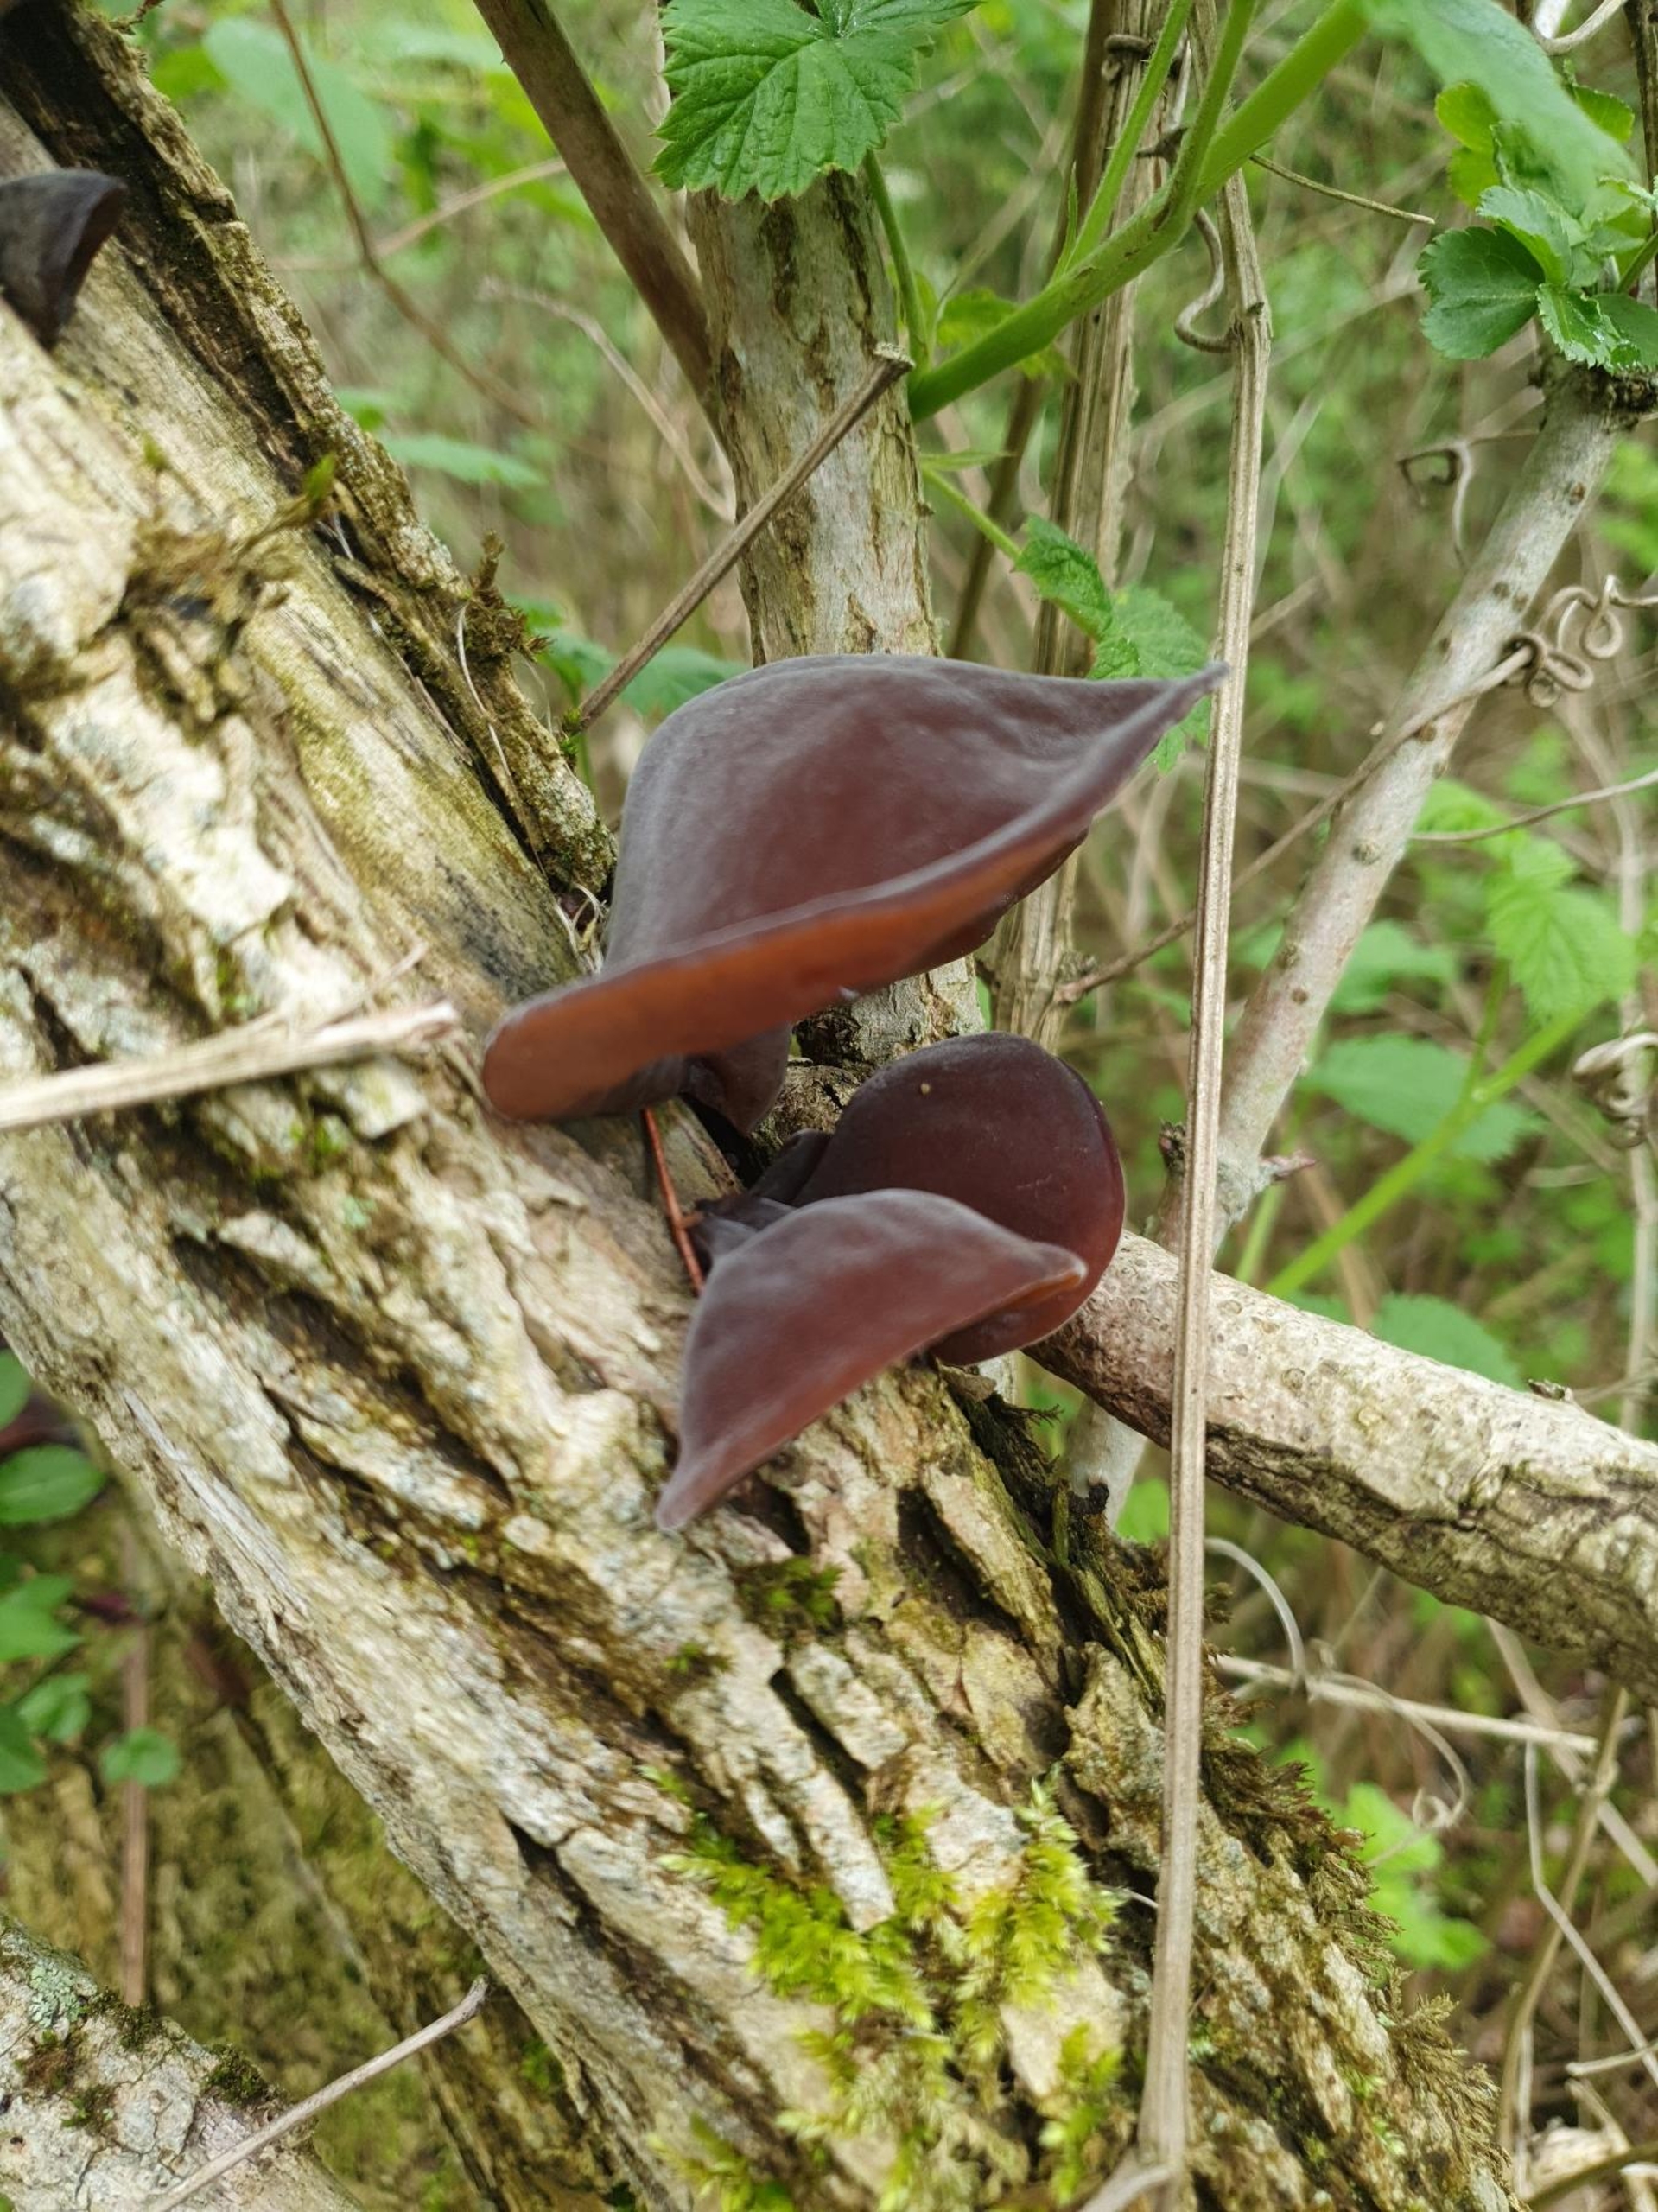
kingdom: Fungi
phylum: Basidiomycota
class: Agaricomycetes
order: Auriculariales
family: Auriculariaceae
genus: Auricularia
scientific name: Auricularia auricula-judae
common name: Almindelig judasøre
